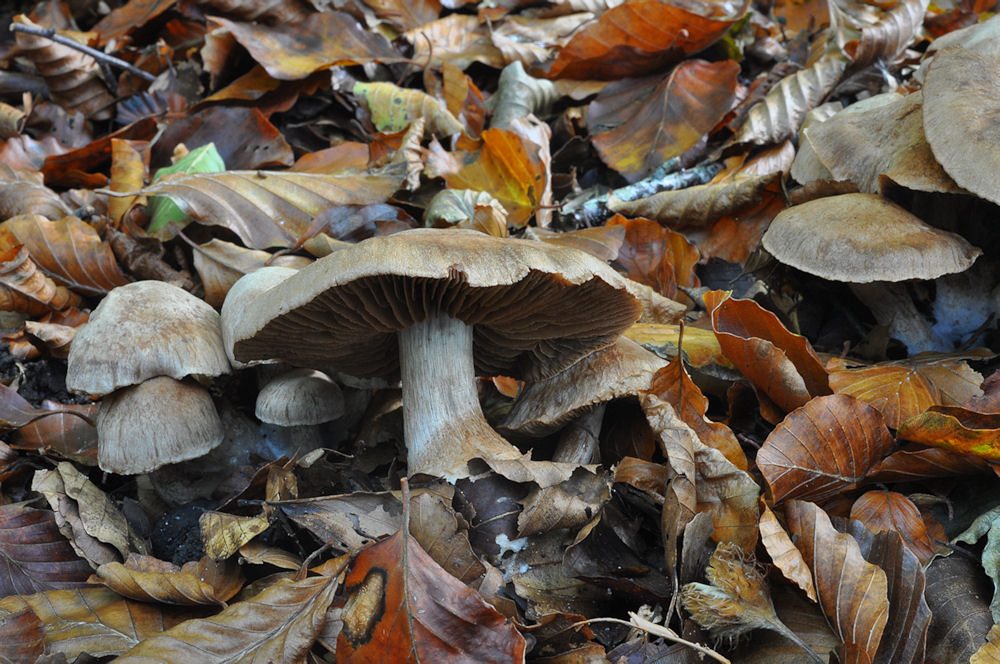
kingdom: Fungi
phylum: Basidiomycota
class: Agaricomycetes
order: Agaricales
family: Cortinariaceae
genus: Cortinarius
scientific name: Cortinarius testaceomicaceus
